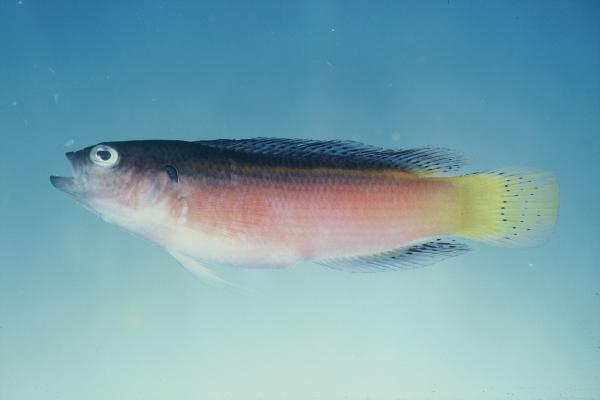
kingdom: Animalia
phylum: Chordata
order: Perciformes
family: Pseudochromidae
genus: Pseudochromis
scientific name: Pseudochromis melas
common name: Dark dottyback
